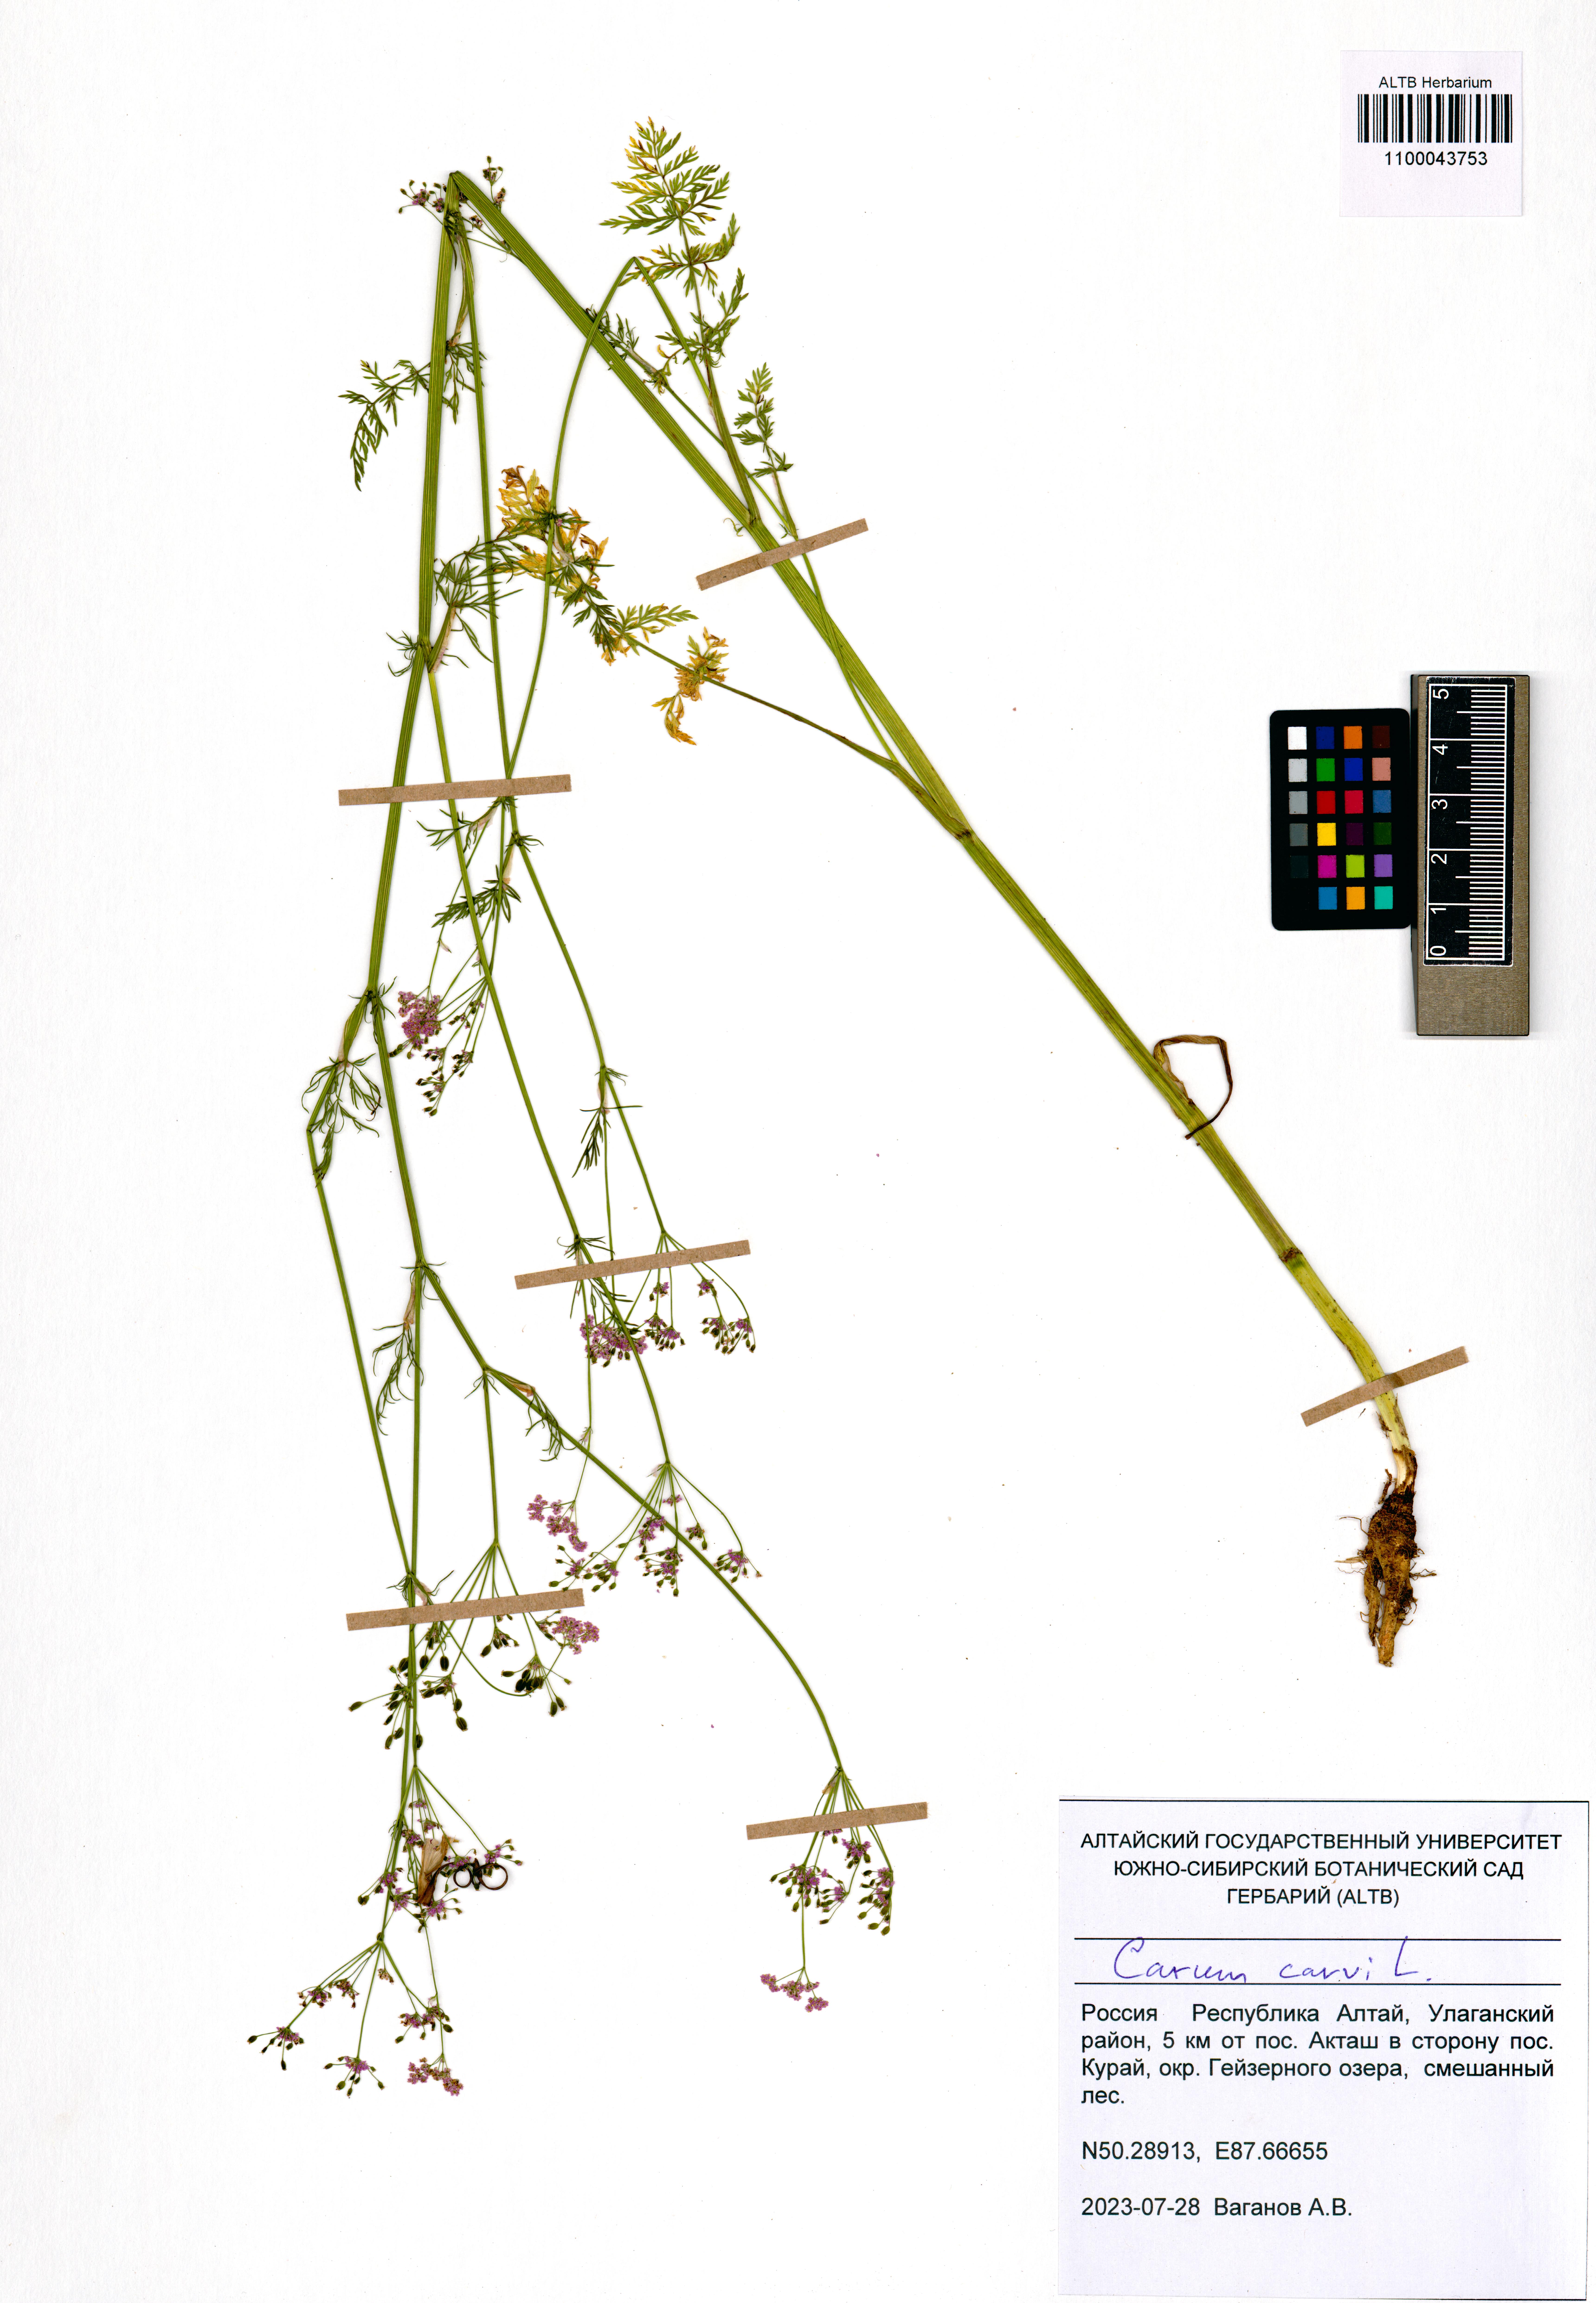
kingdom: Plantae
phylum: Tracheophyta
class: Magnoliopsida
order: Apiales
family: Apiaceae
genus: Carum
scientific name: Carum carvi
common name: Caraway
